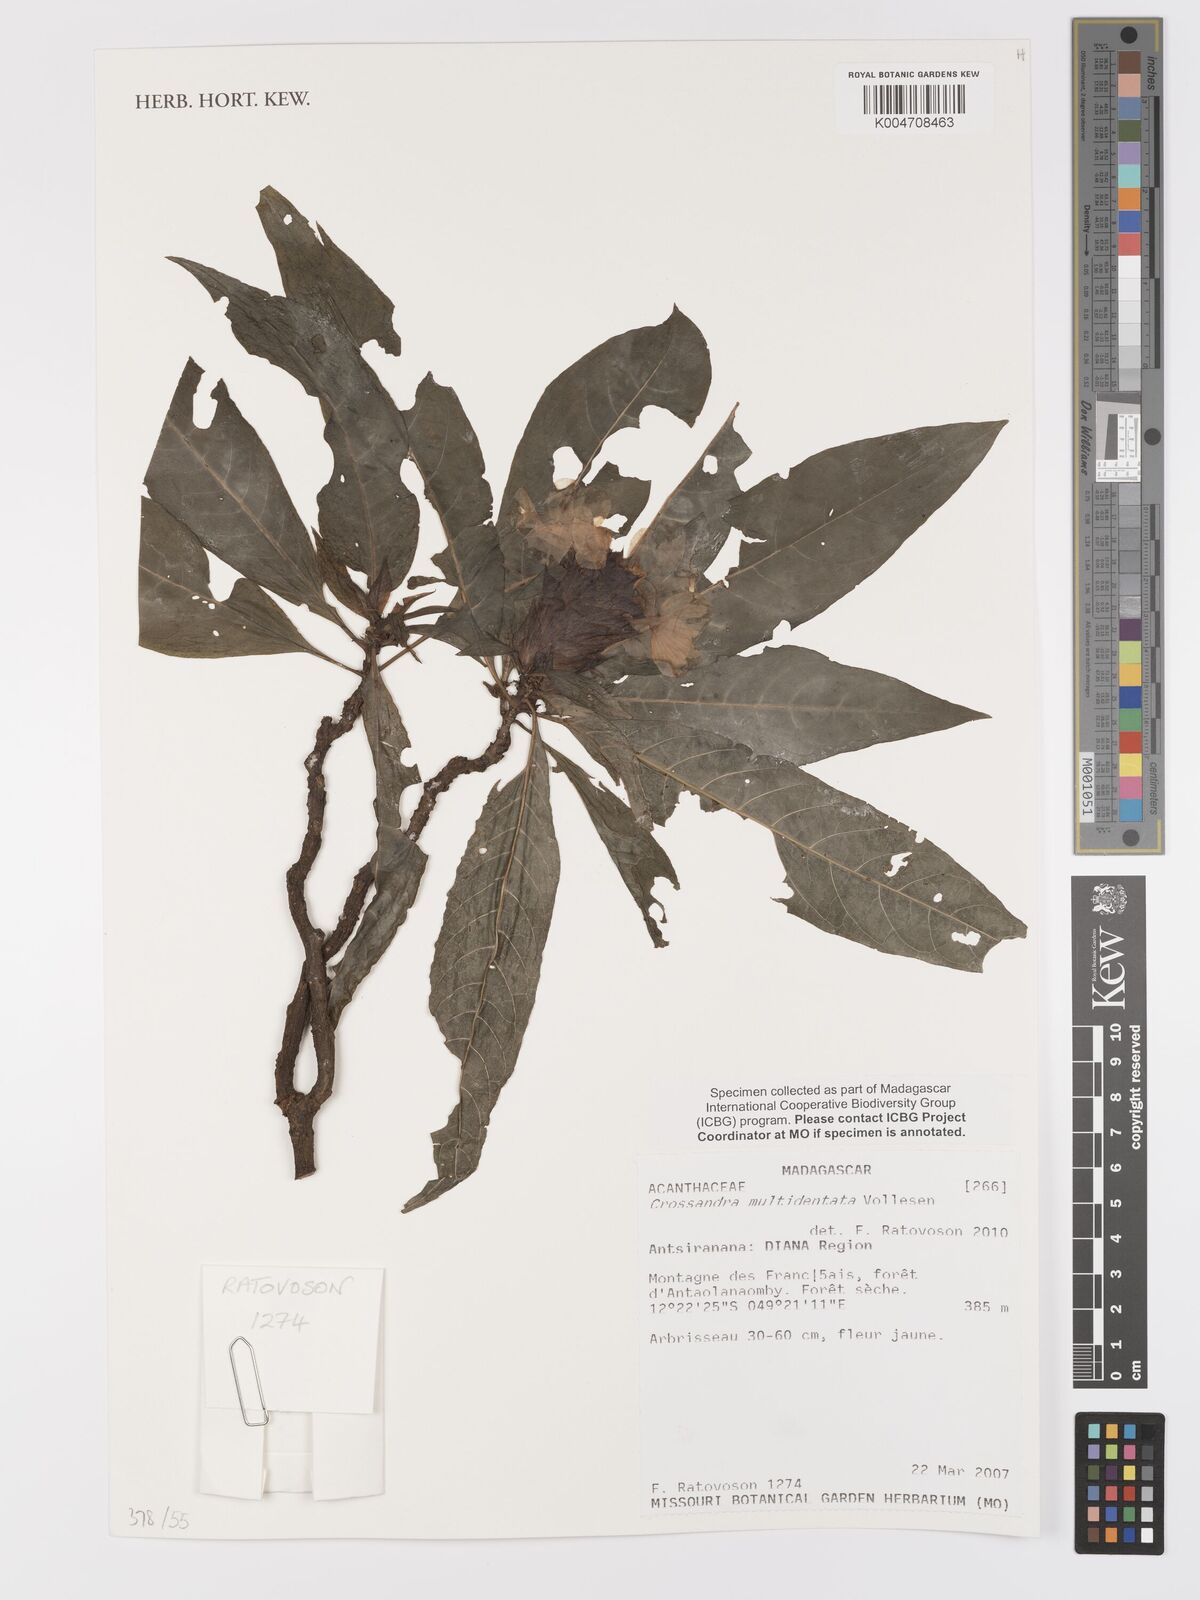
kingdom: Plantae
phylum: Tracheophyta
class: Magnoliopsida
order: Lamiales
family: Acanthaceae
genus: Crossandra
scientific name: Crossandra multidentata
